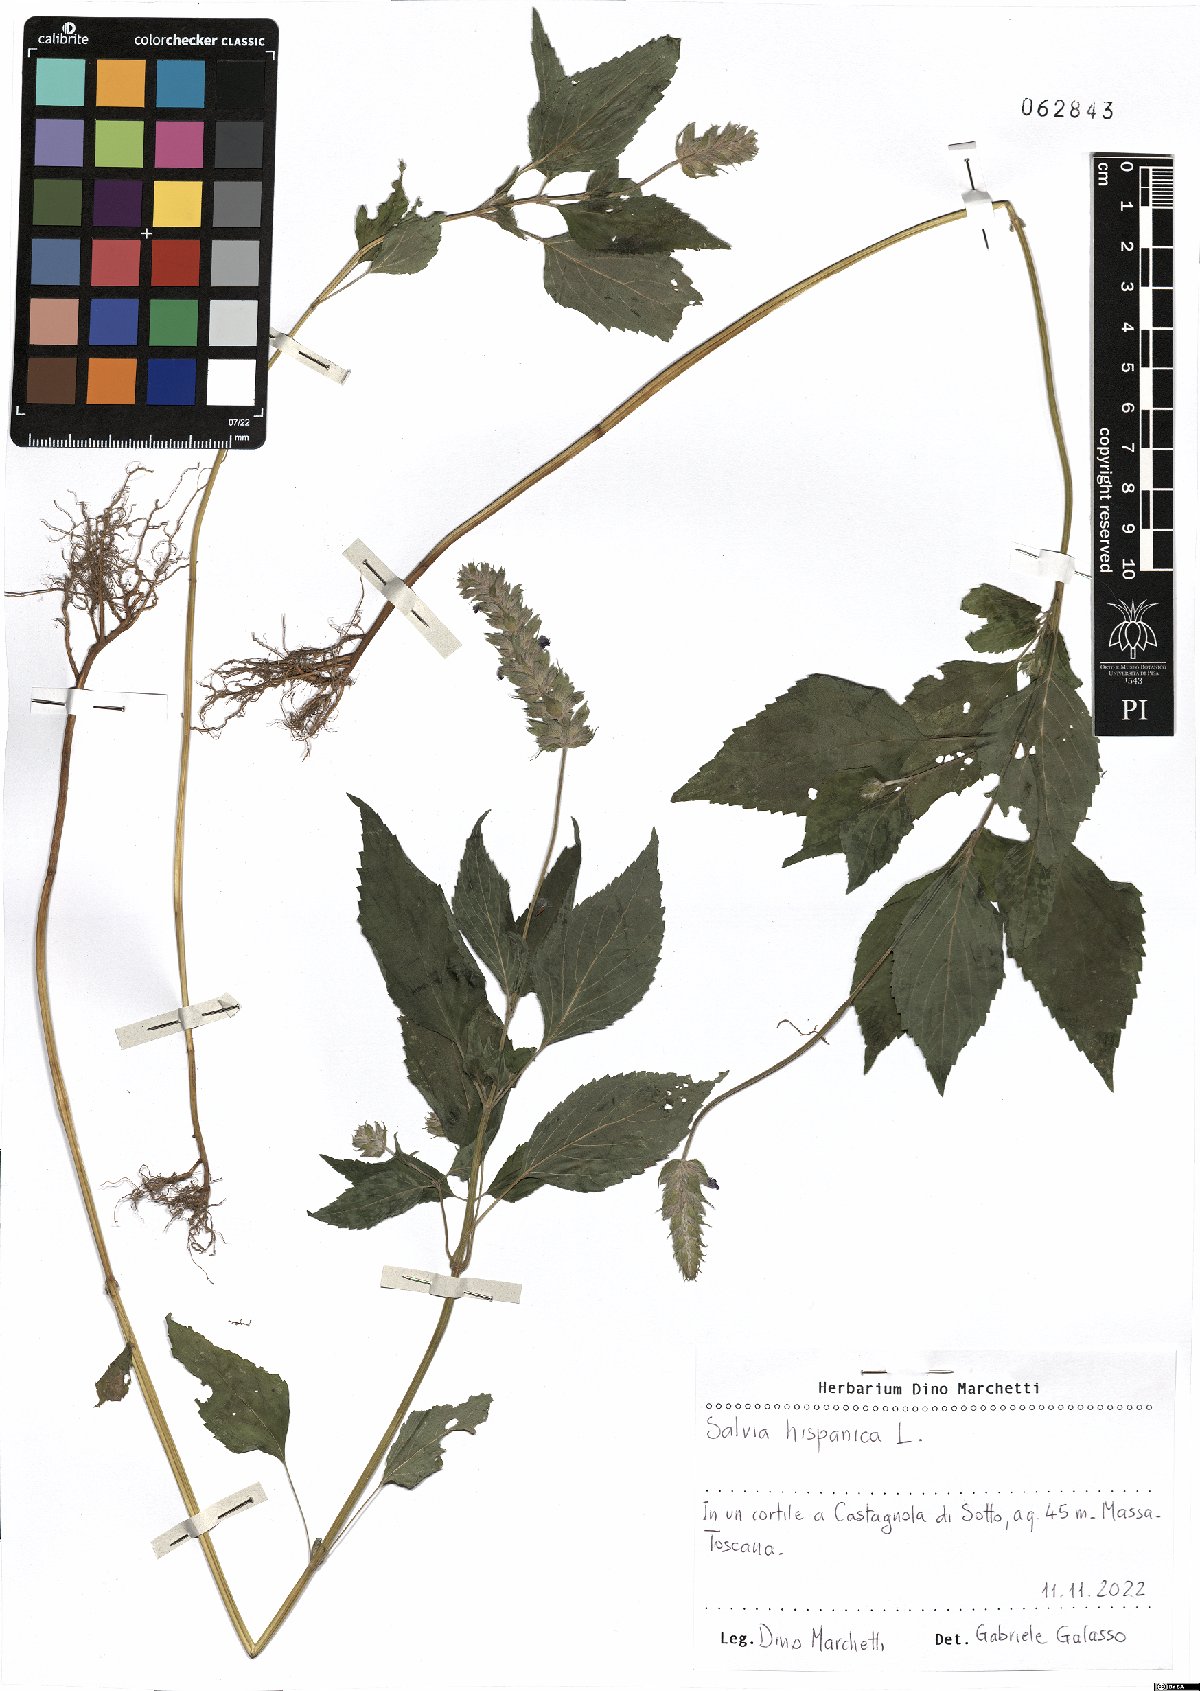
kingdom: Plantae
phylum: Tracheophyta
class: Magnoliopsida
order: Lamiales
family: Lamiaceae
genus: Salvia
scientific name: Salvia hispanica
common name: Chia
